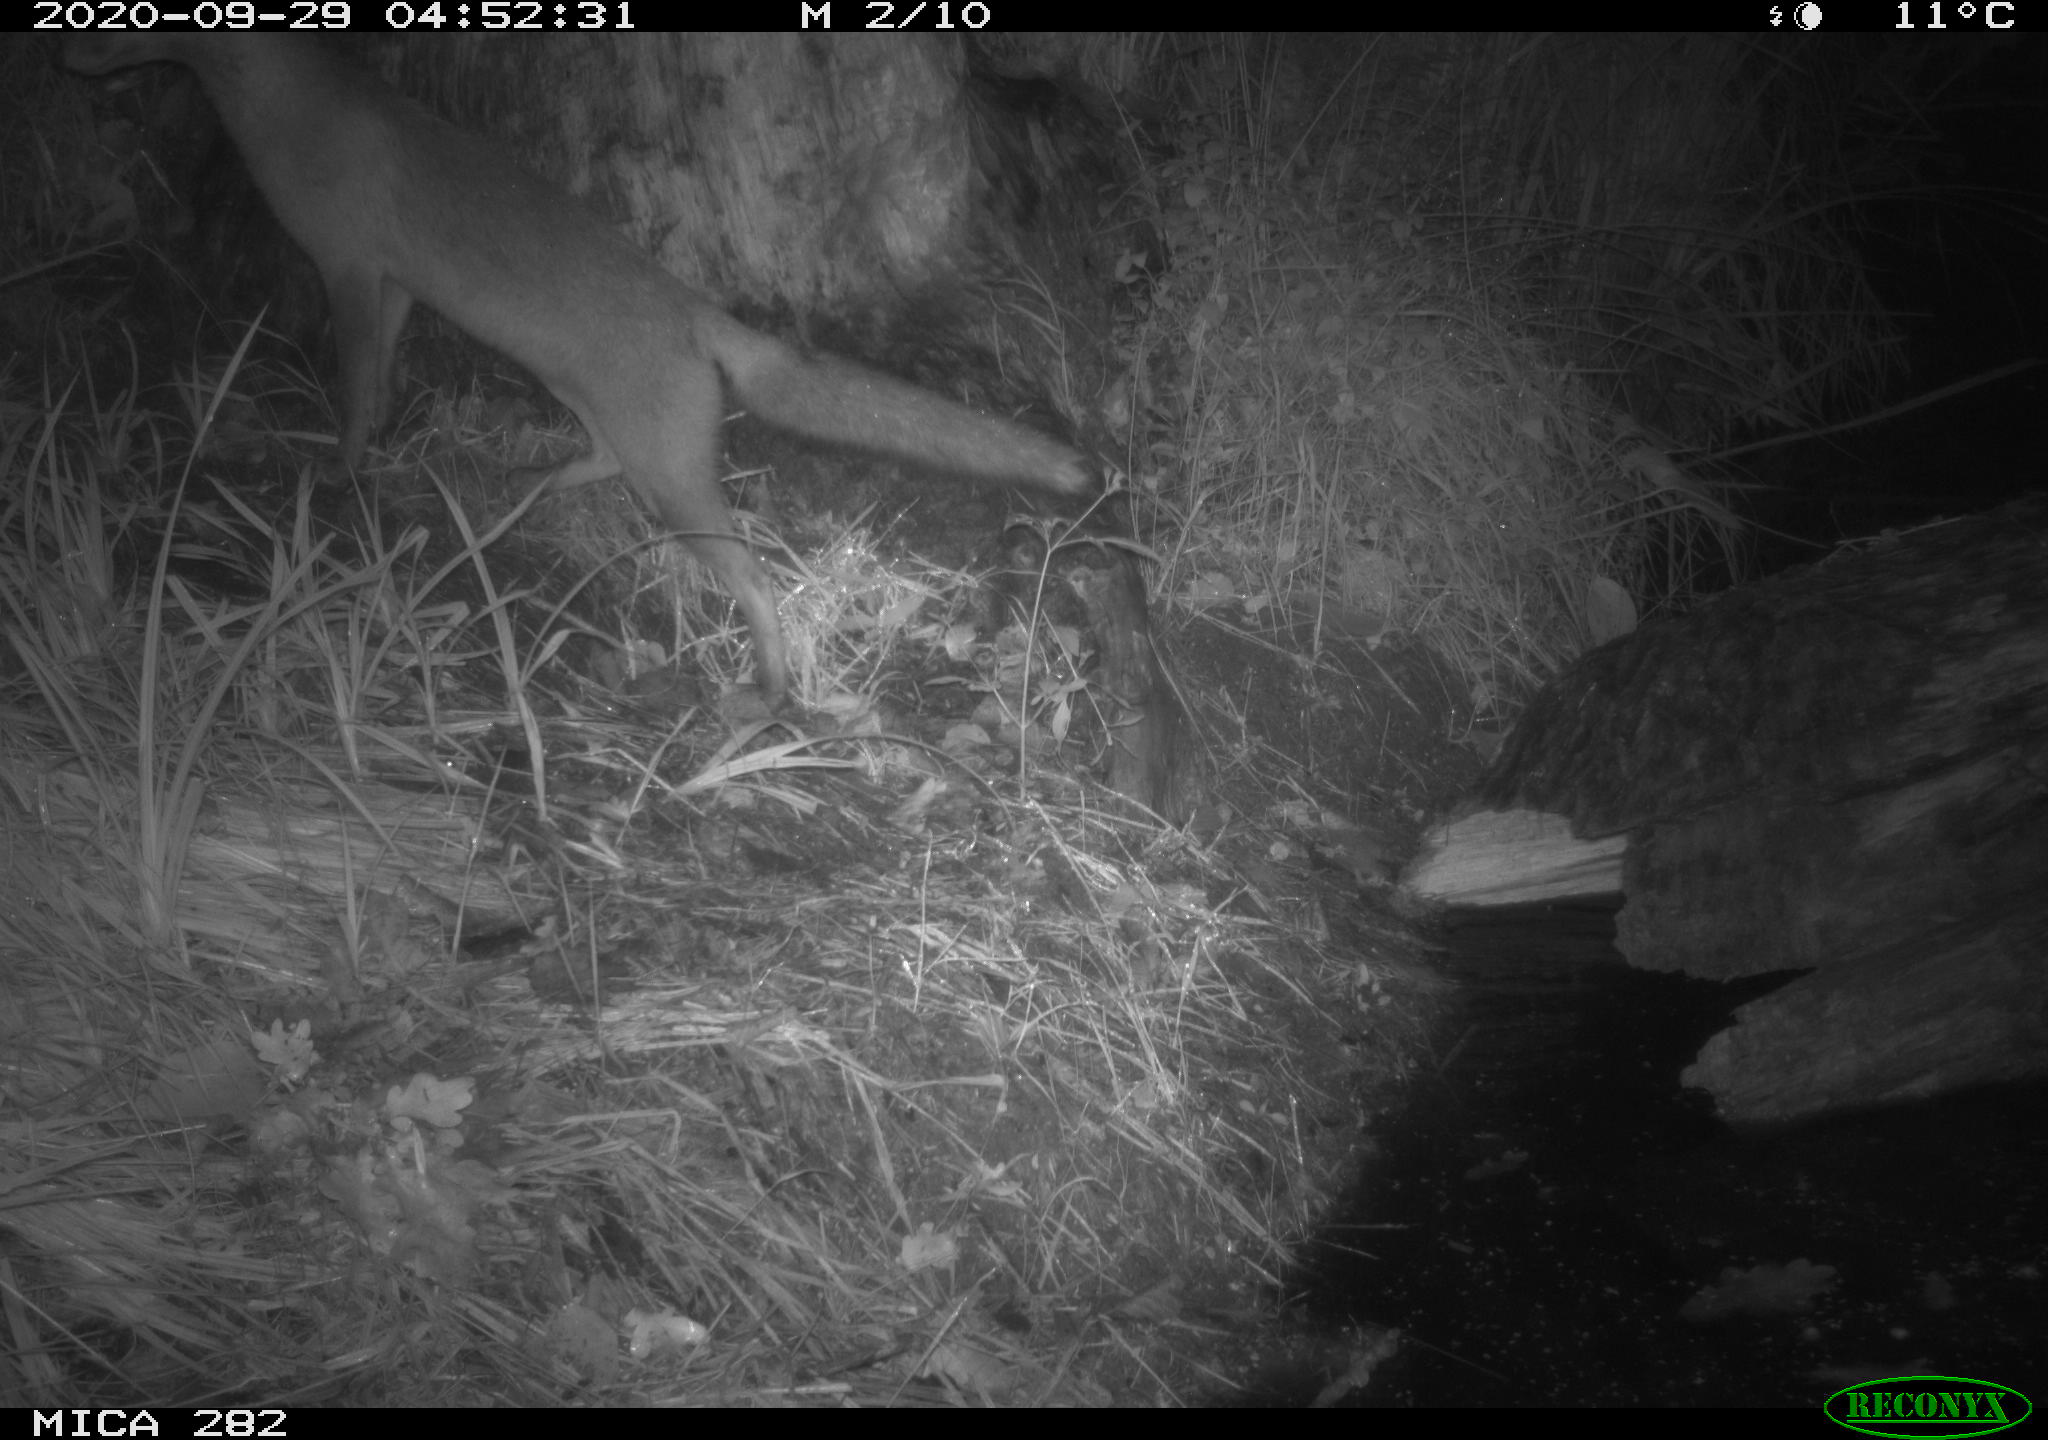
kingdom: Animalia
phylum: Chordata
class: Mammalia
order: Carnivora
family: Canidae
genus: Vulpes
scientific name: Vulpes vulpes
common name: Red fox
